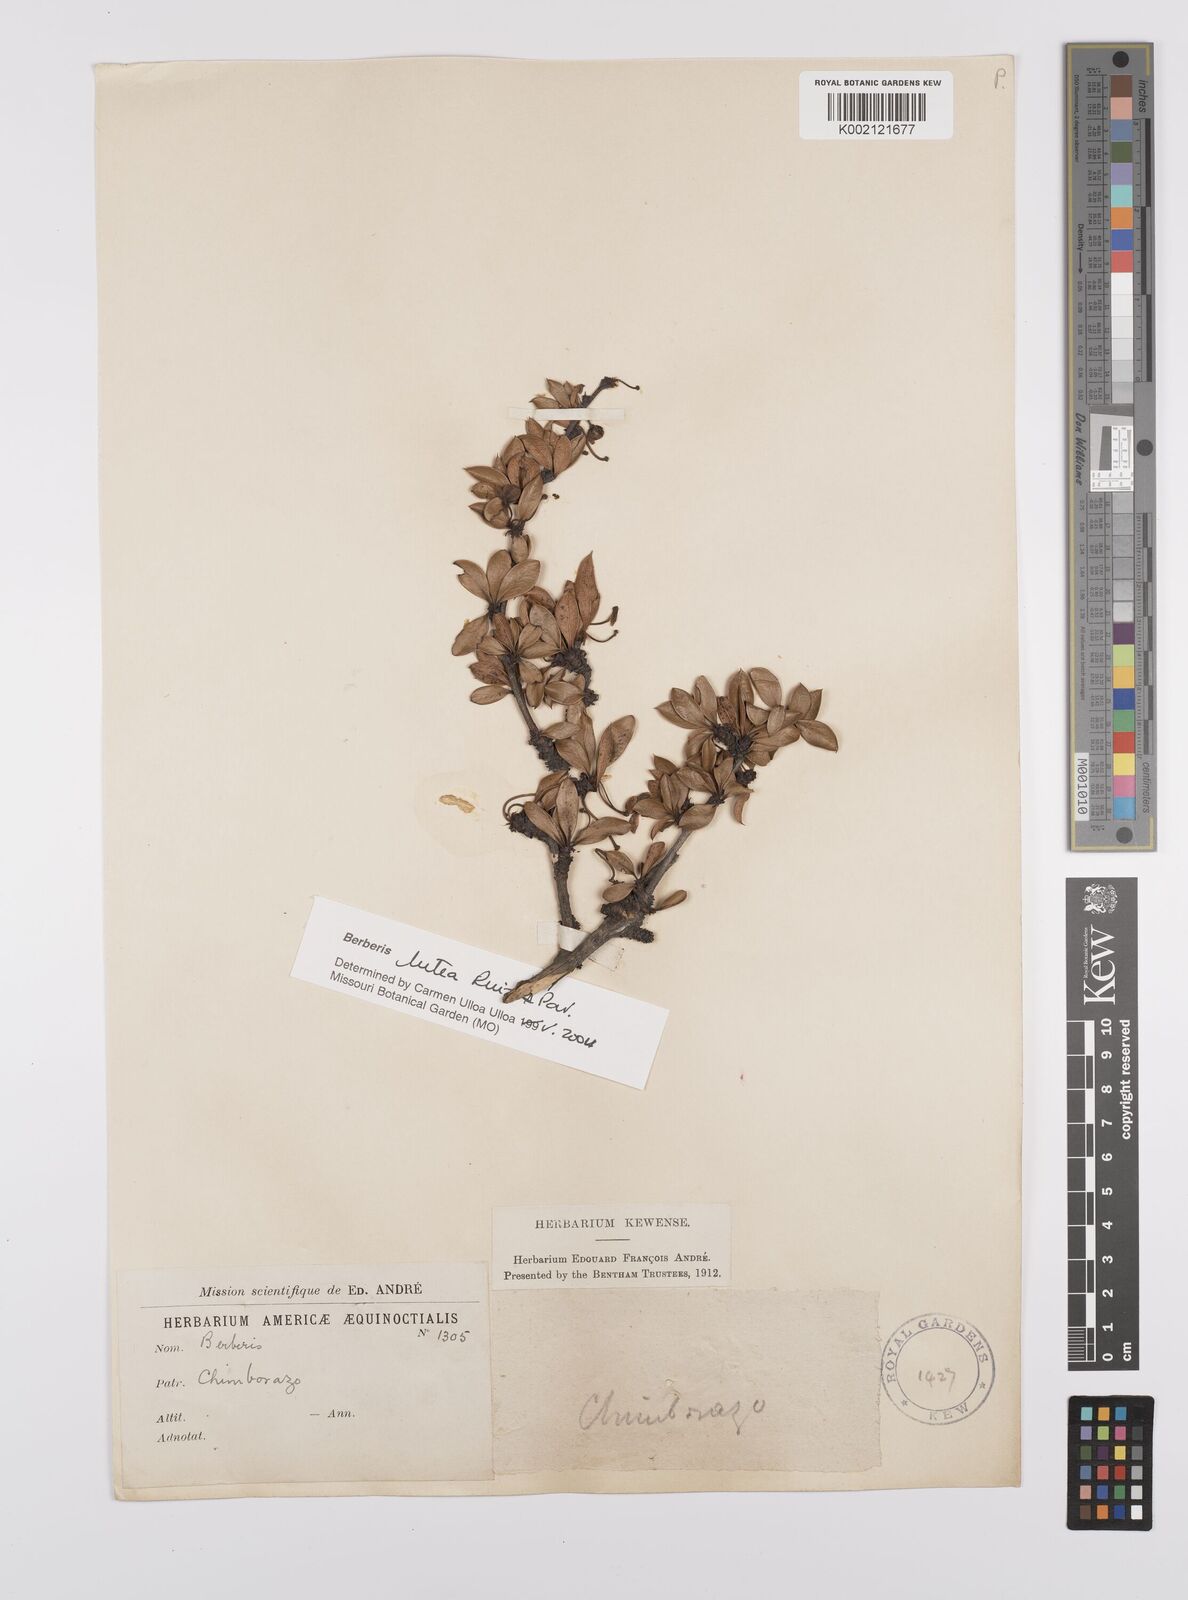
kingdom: Plantae
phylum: Tracheophyta
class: Magnoliopsida
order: Ranunculales
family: Berberidaceae
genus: Berberis
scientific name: Berberis lutea
